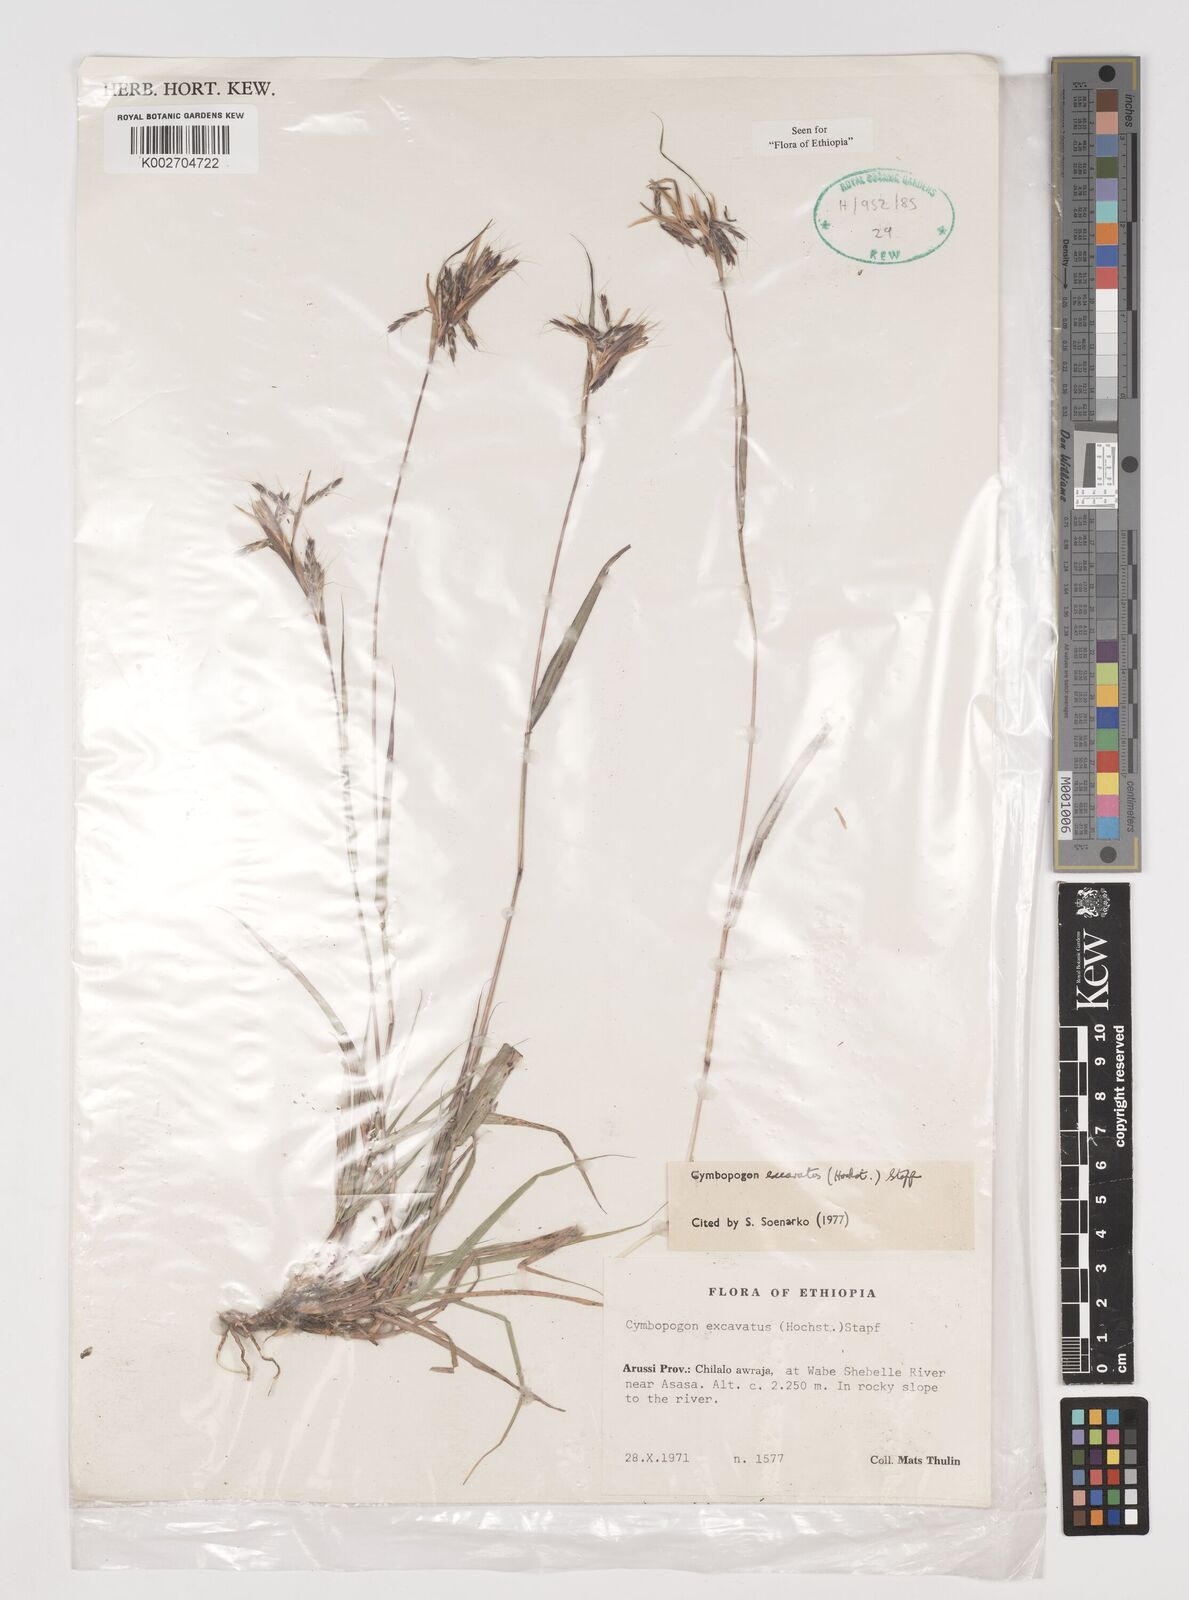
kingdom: Plantae
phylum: Tracheophyta
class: Liliopsida
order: Poales
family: Poaceae
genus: Cymbopogon
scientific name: Cymbopogon
